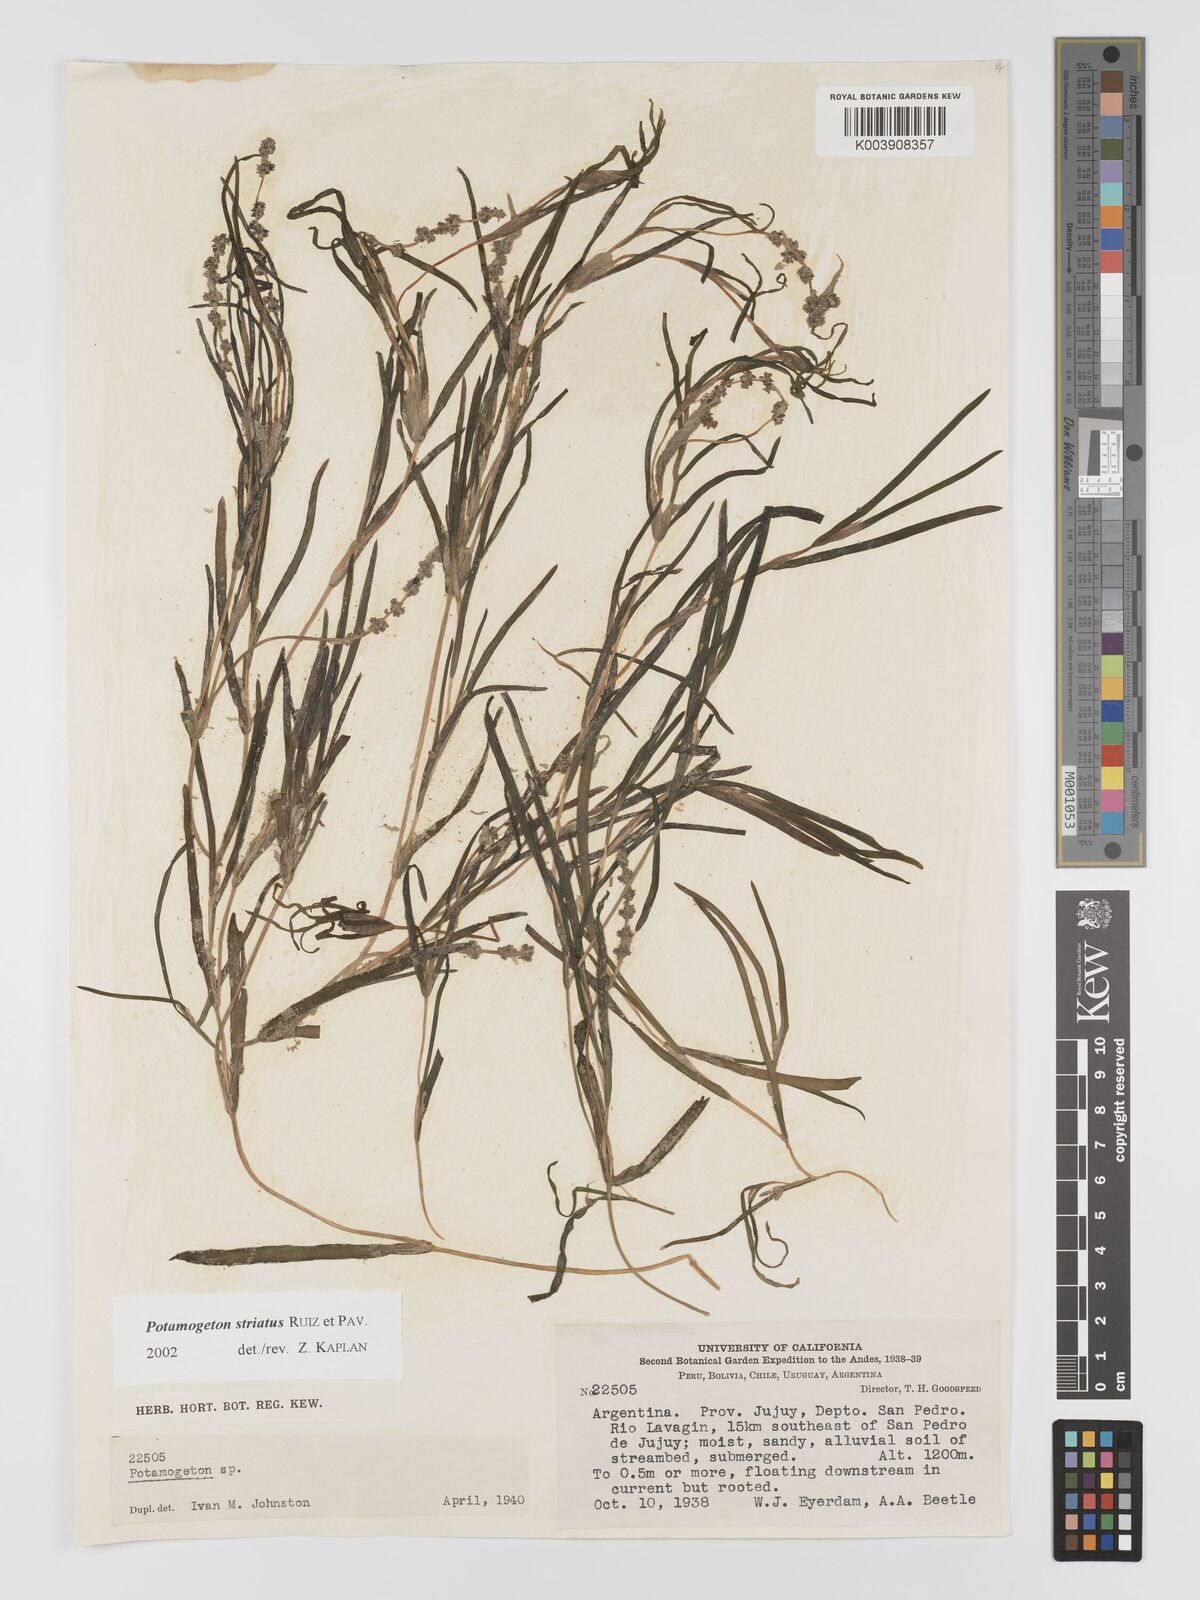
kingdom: Plantae
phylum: Tracheophyta
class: Liliopsida
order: Alismatales
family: Potamogetonaceae
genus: Stuckenia
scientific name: Stuckenia striata
